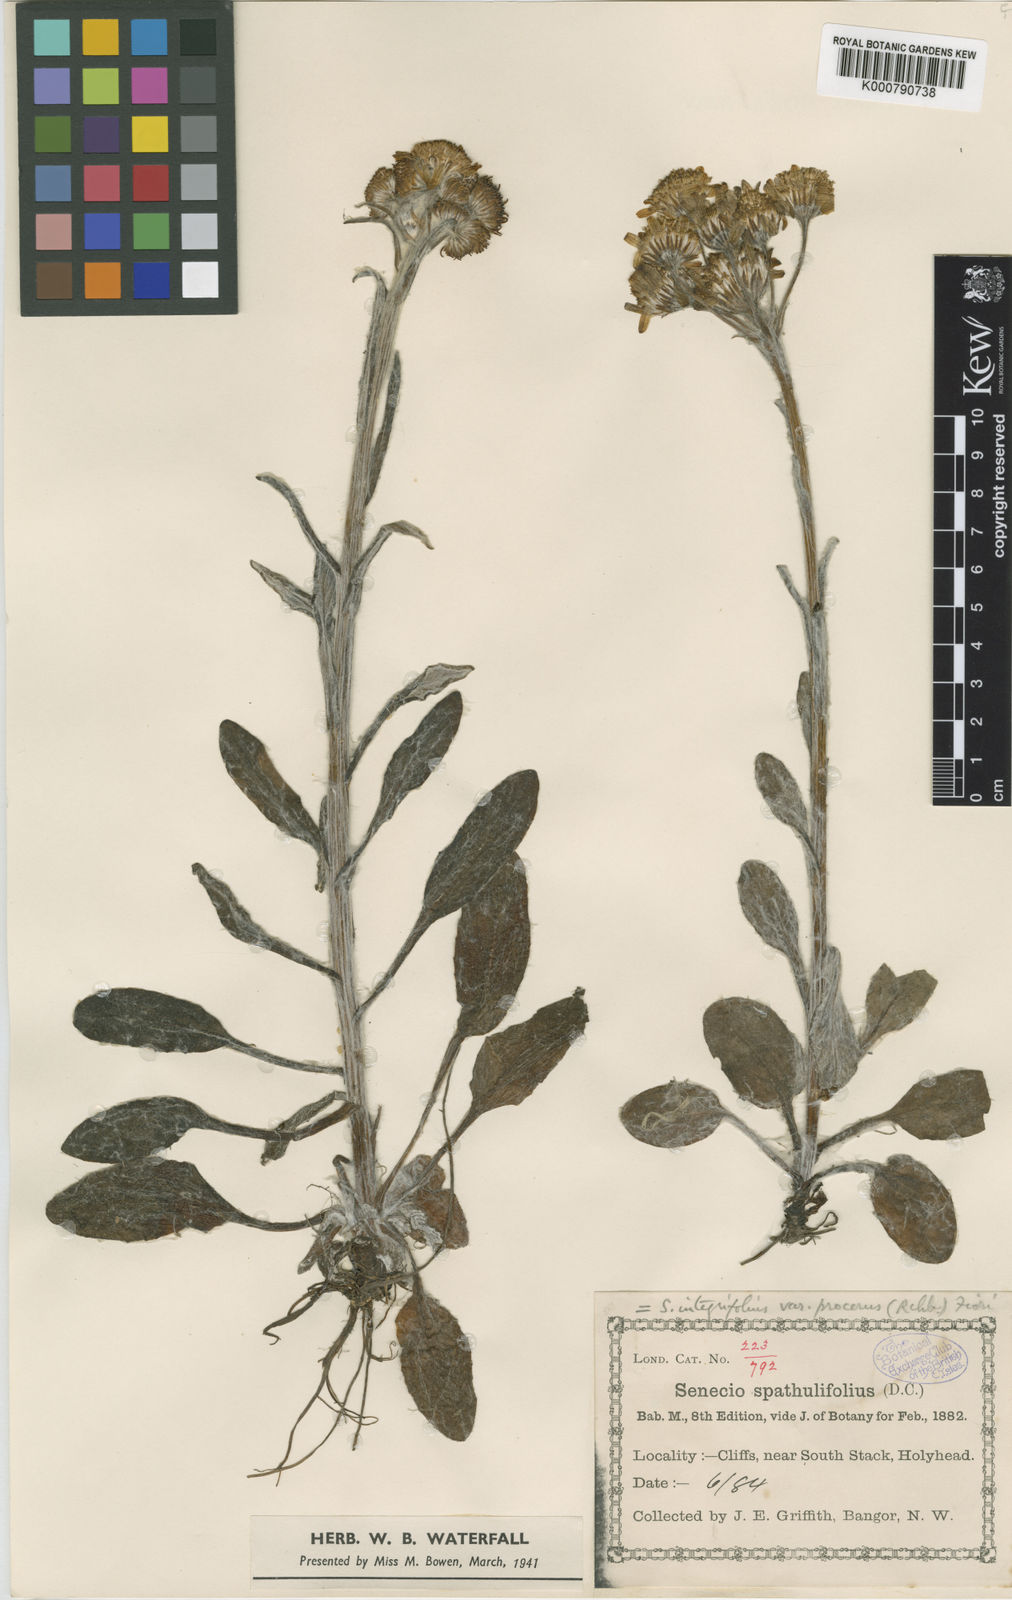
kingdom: Plantae
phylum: Tracheophyta
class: Magnoliopsida
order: Asterales
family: Asteraceae
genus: Tephroseris
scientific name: Tephroseris integrifolia
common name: Field fleawort
